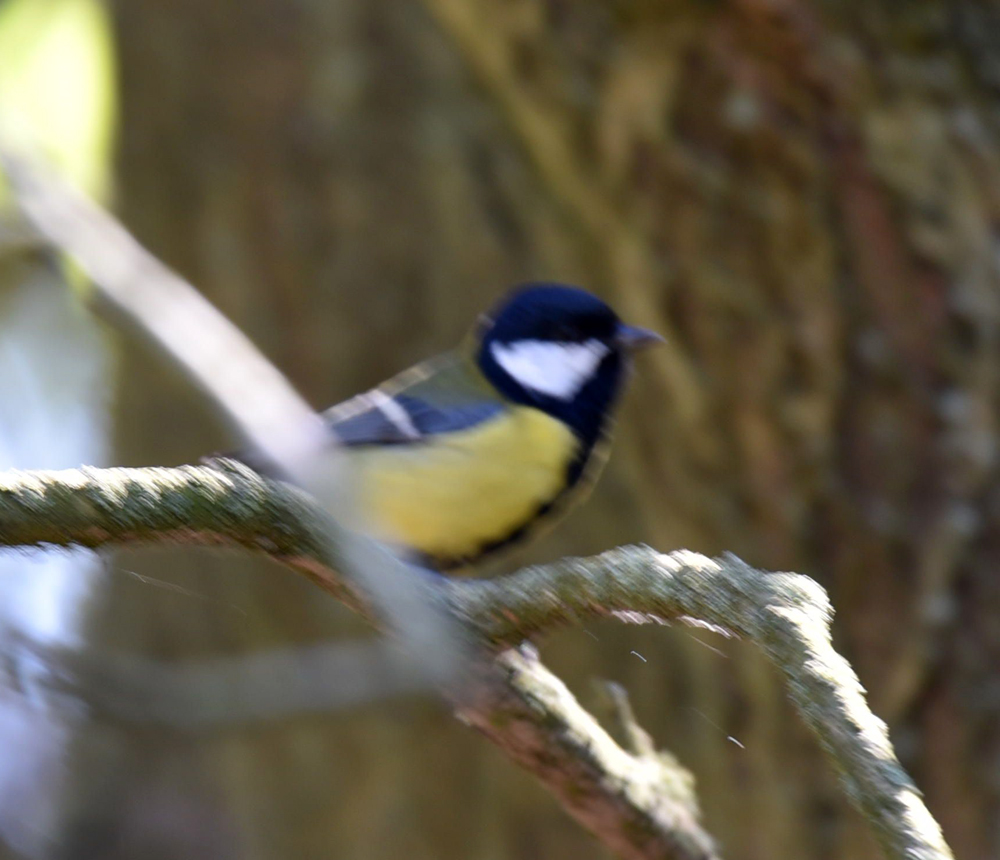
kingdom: Animalia
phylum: Chordata
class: Aves
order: Passeriformes
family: Paridae
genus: Parus
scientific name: Parus major
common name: Great tit
